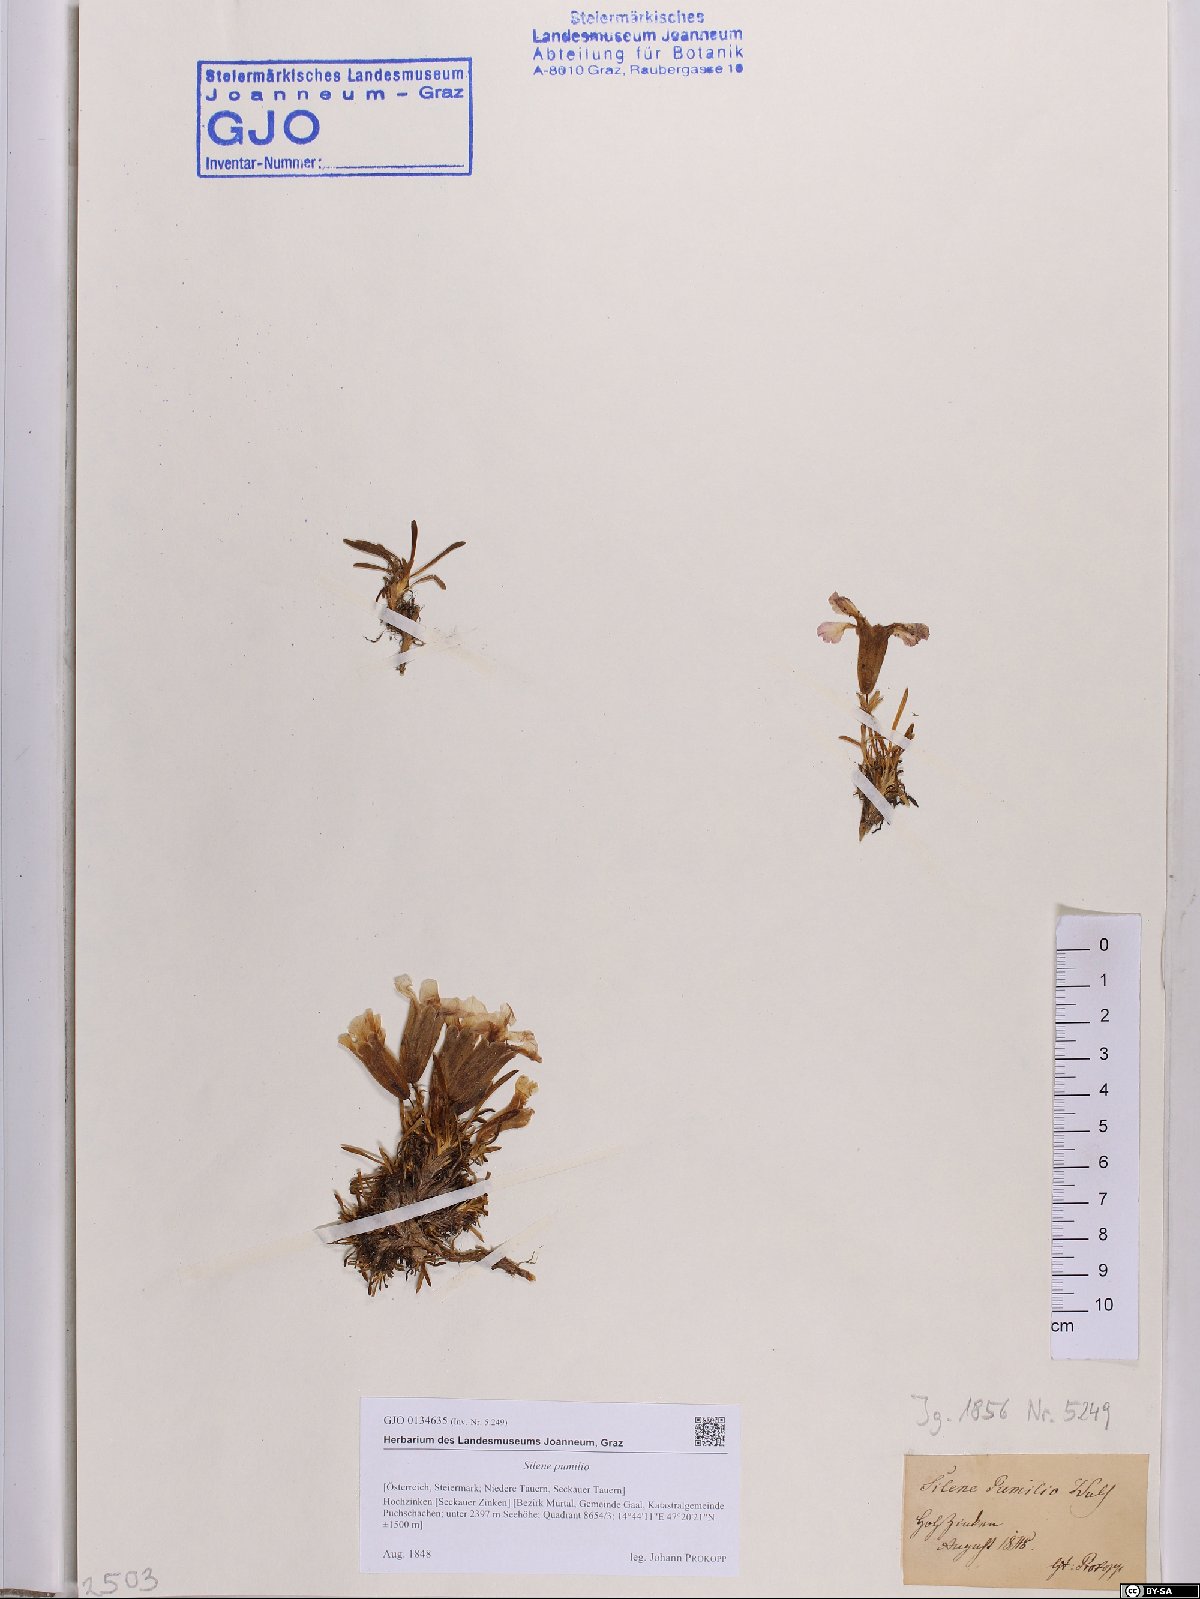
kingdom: Plantae
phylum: Tracheophyta
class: Magnoliopsida
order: Caryophyllales
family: Caryophyllaceae
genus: Saponaria
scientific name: Saponaria pumila
